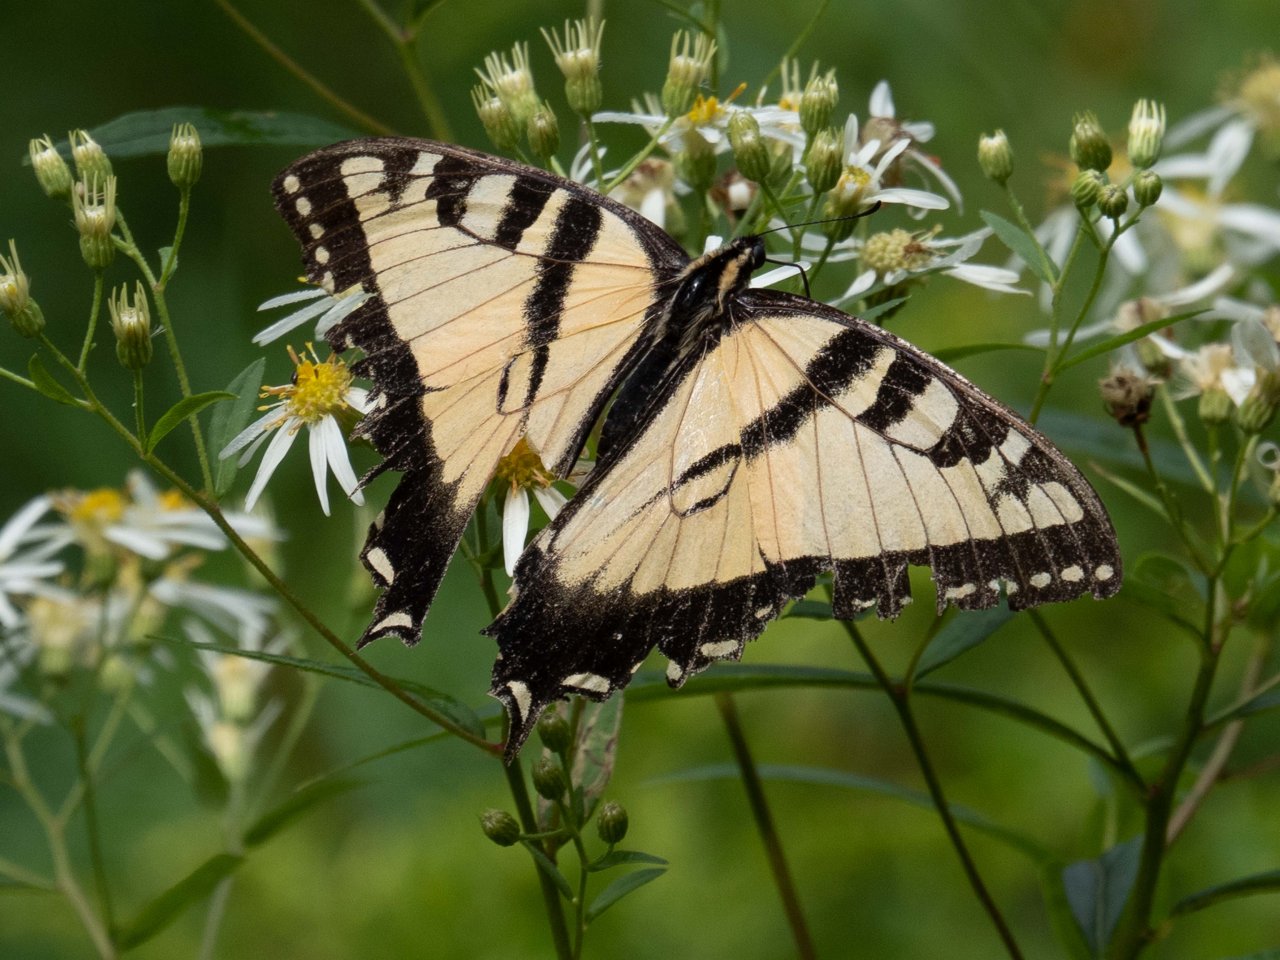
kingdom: Animalia
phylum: Arthropoda
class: Insecta
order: Lepidoptera
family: Papilionidae
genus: Pterourus
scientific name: Pterourus
